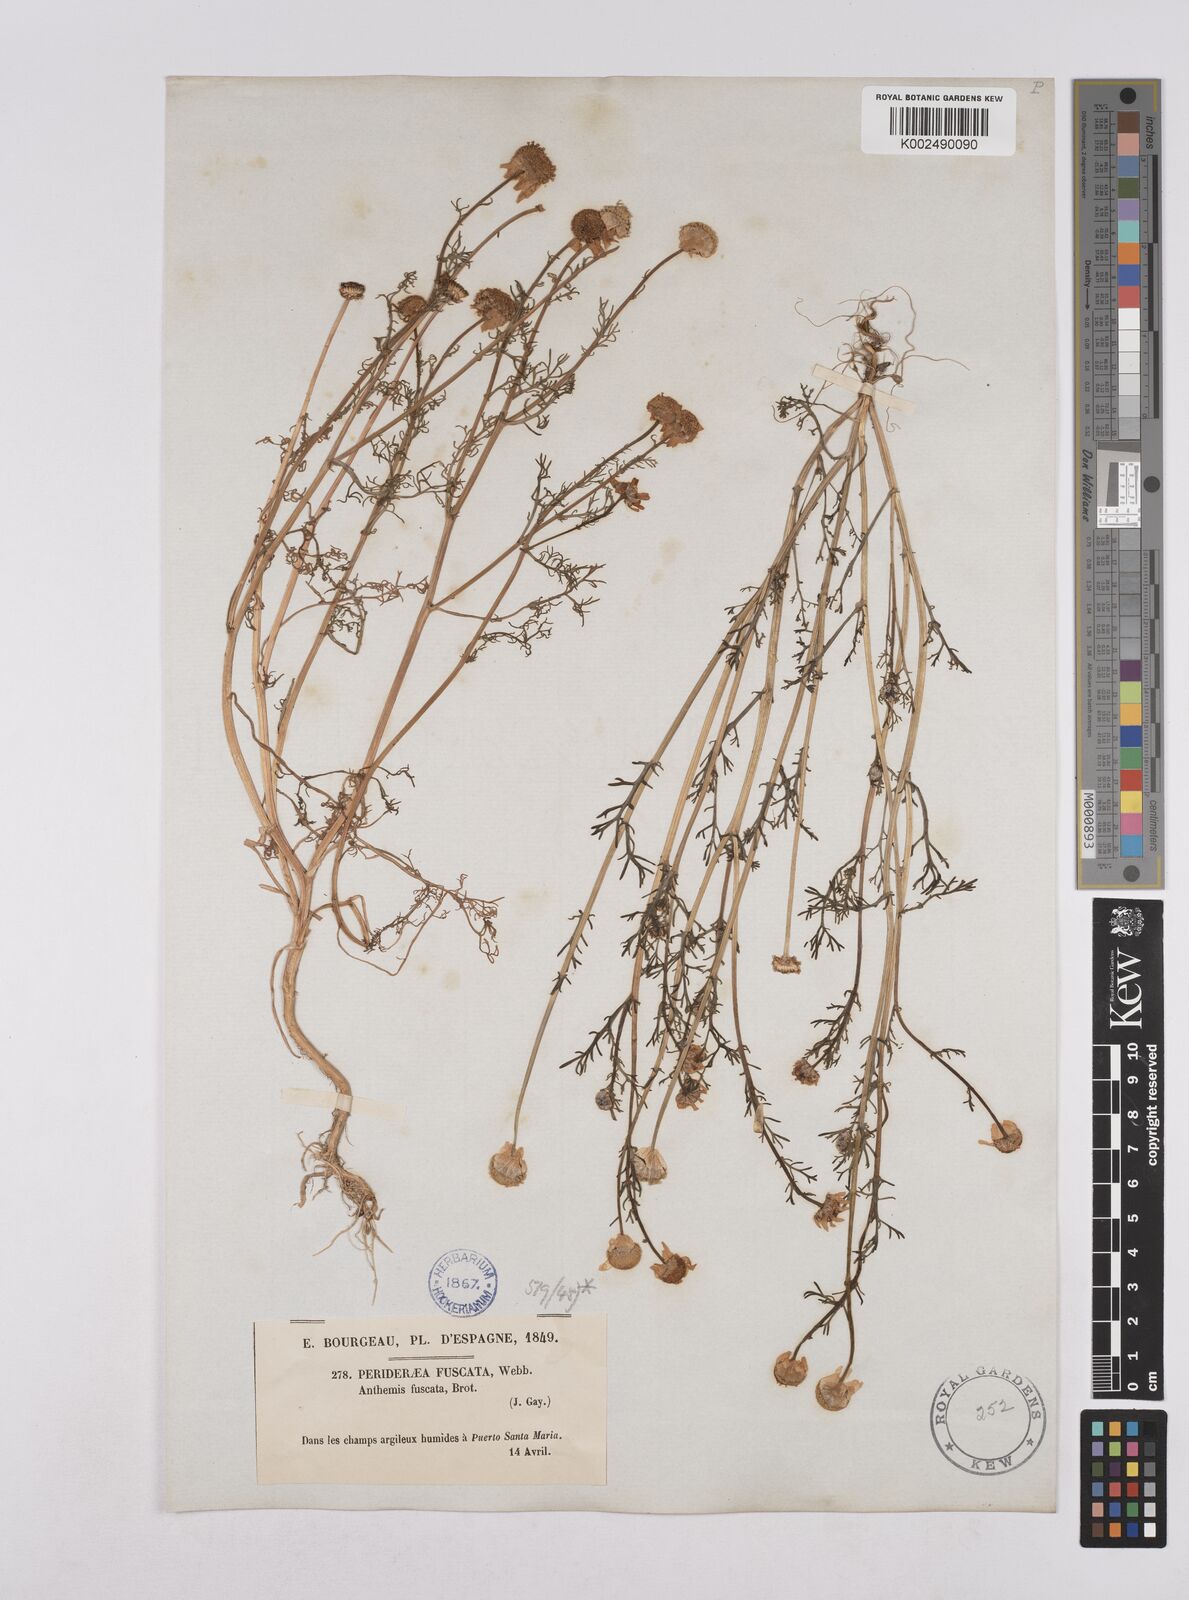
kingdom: Plantae
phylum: Tracheophyta
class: Magnoliopsida
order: Asterales
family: Asteraceae
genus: Chamaemelum
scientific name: Chamaemelum fuscatum
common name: Chamomile
